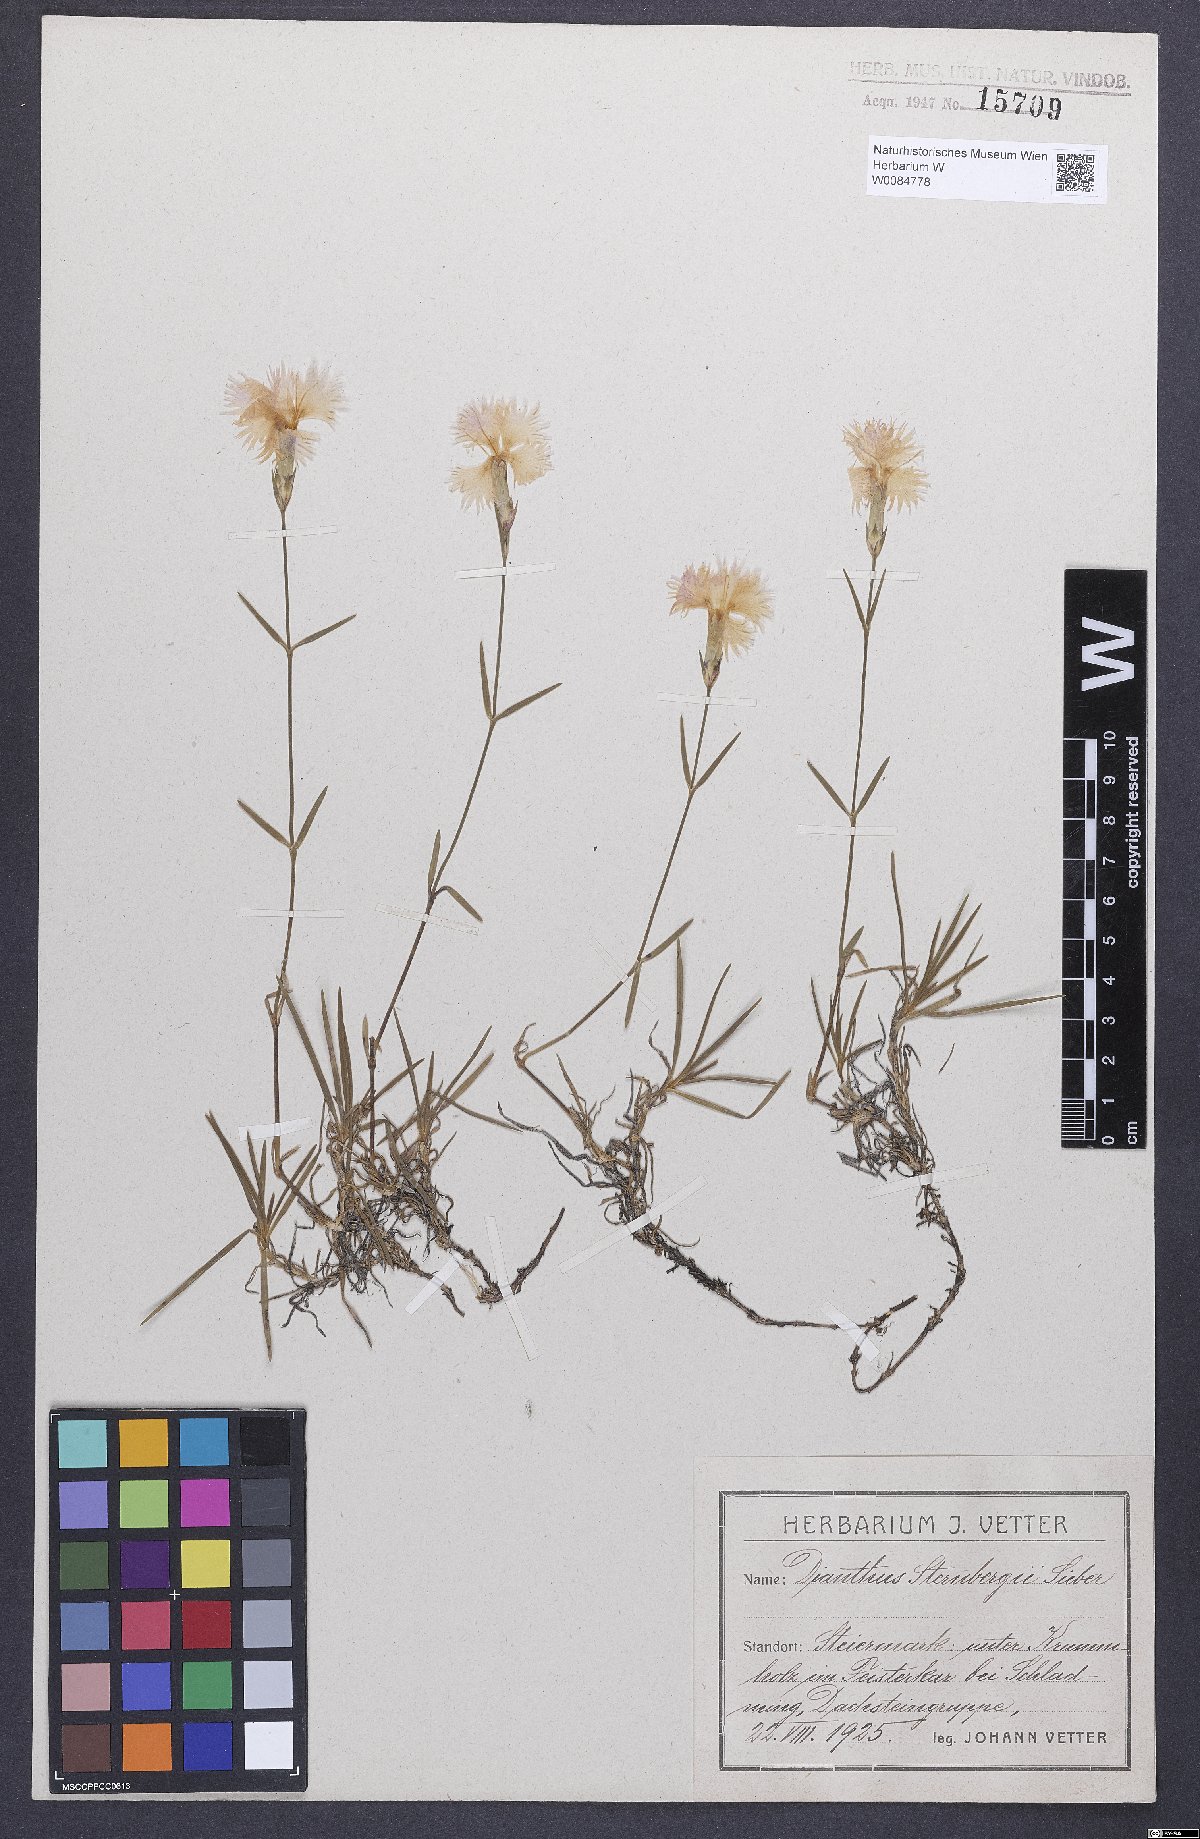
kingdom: Plantae
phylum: Tracheophyta
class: Magnoliopsida
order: Caryophyllales
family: Caryophyllaceae
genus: Dianthus
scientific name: Dianthus monspessulanus
